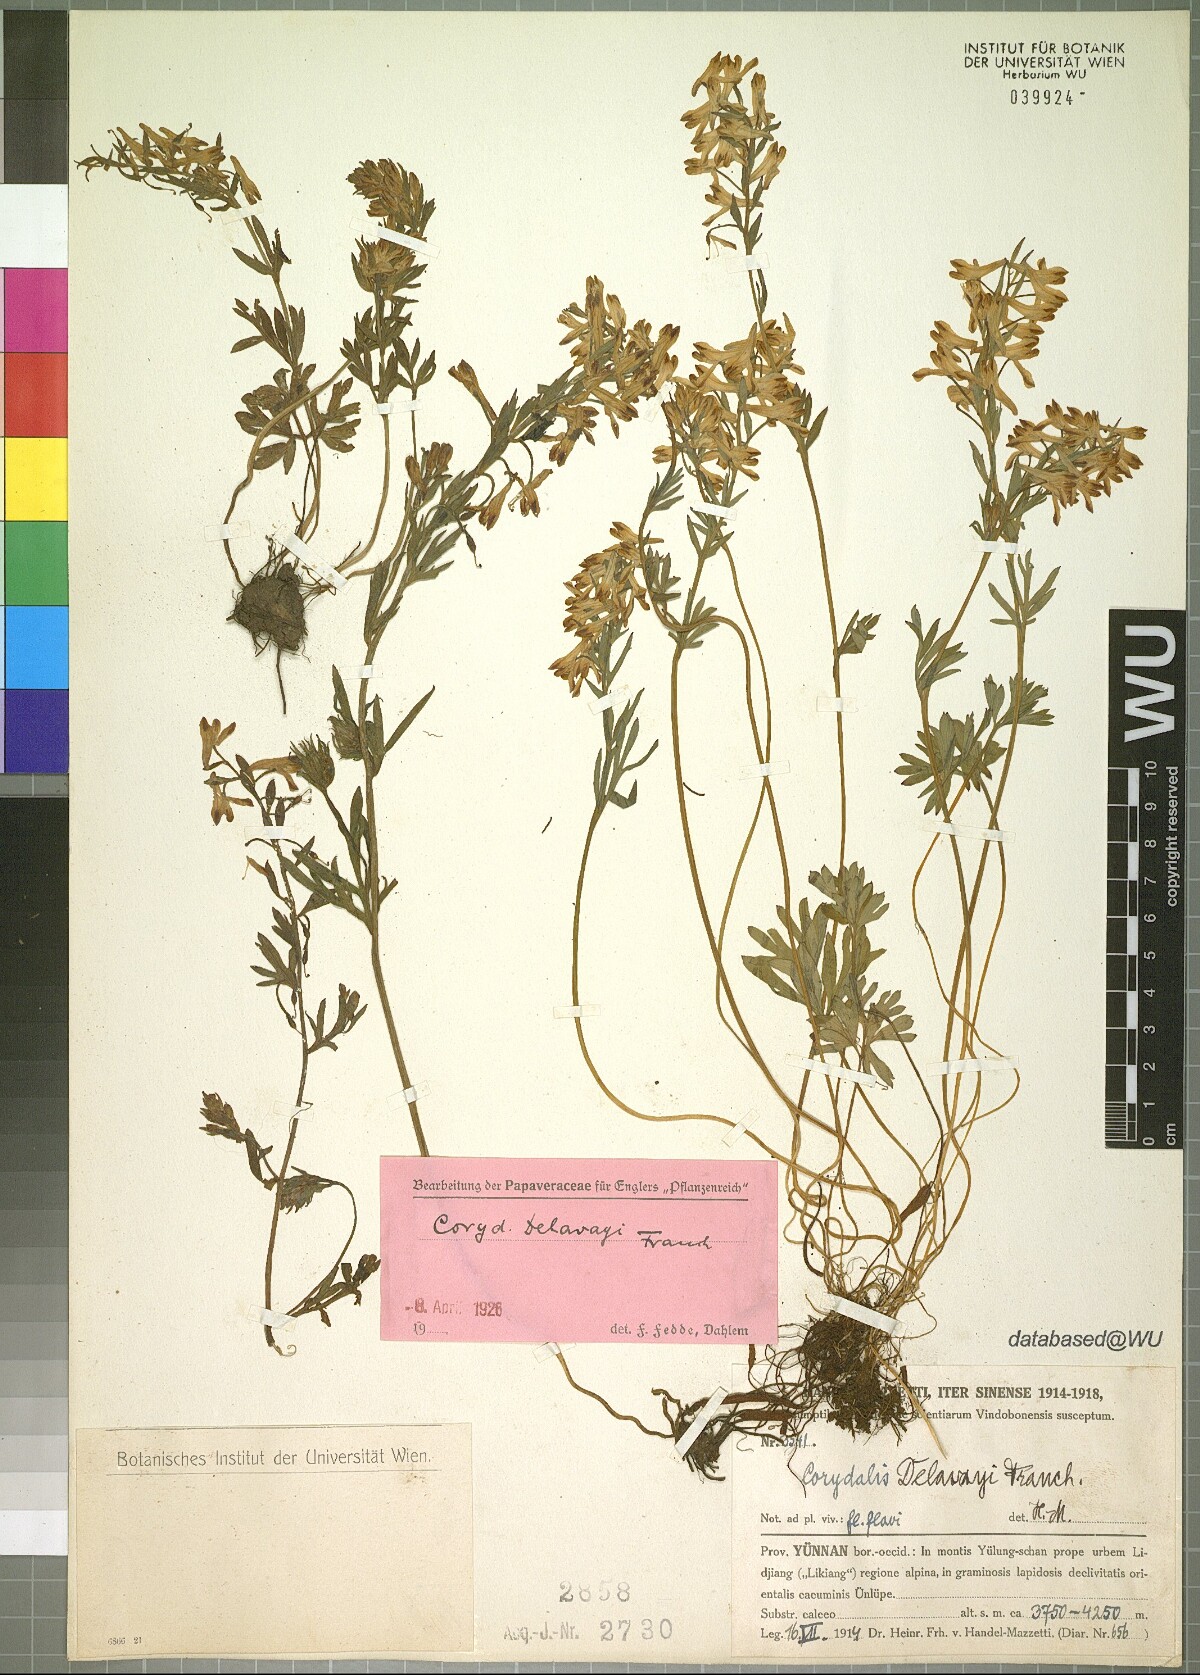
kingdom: Plantae
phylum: Tracheophyta
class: Magnoliopsida
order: Ranunculales
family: Papaveraceae
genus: Corydalis
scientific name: Corydalis delavayi
